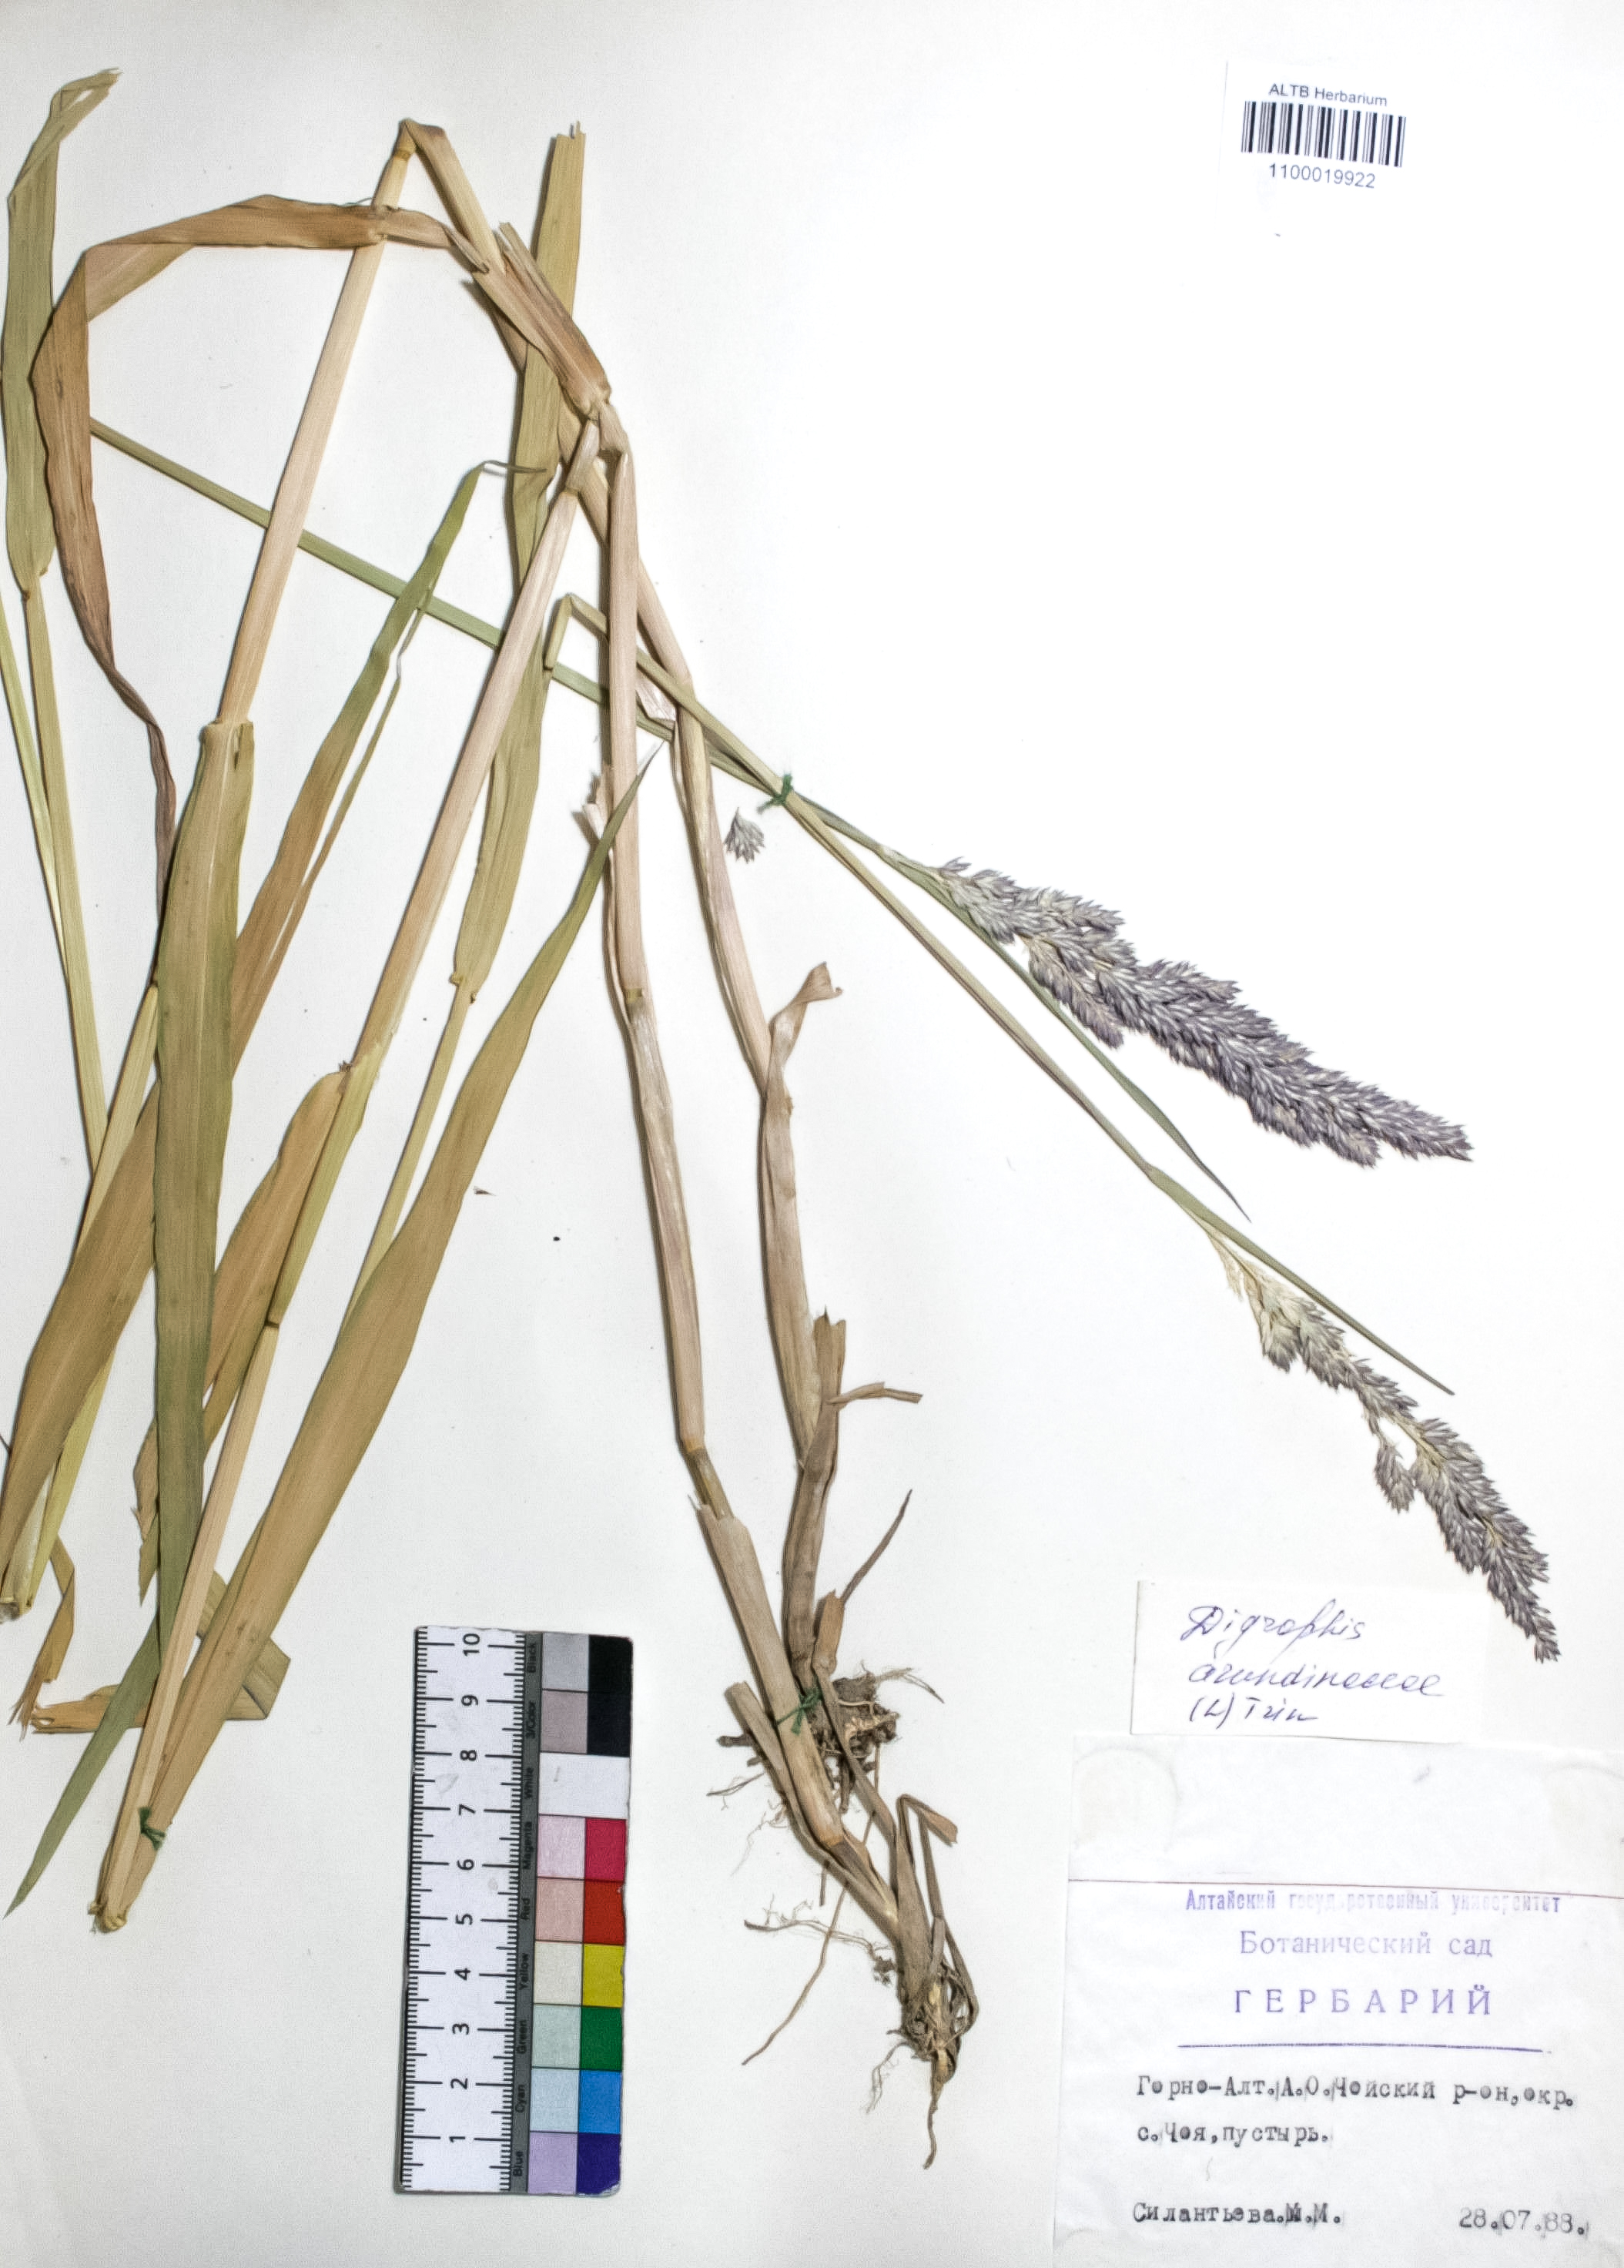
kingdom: Plantae
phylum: Tracheophyta
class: Liliopsida
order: Poales
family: Poaceae
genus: Phalaris
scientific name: Phalaris arundinacea
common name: Reed canary-grass
